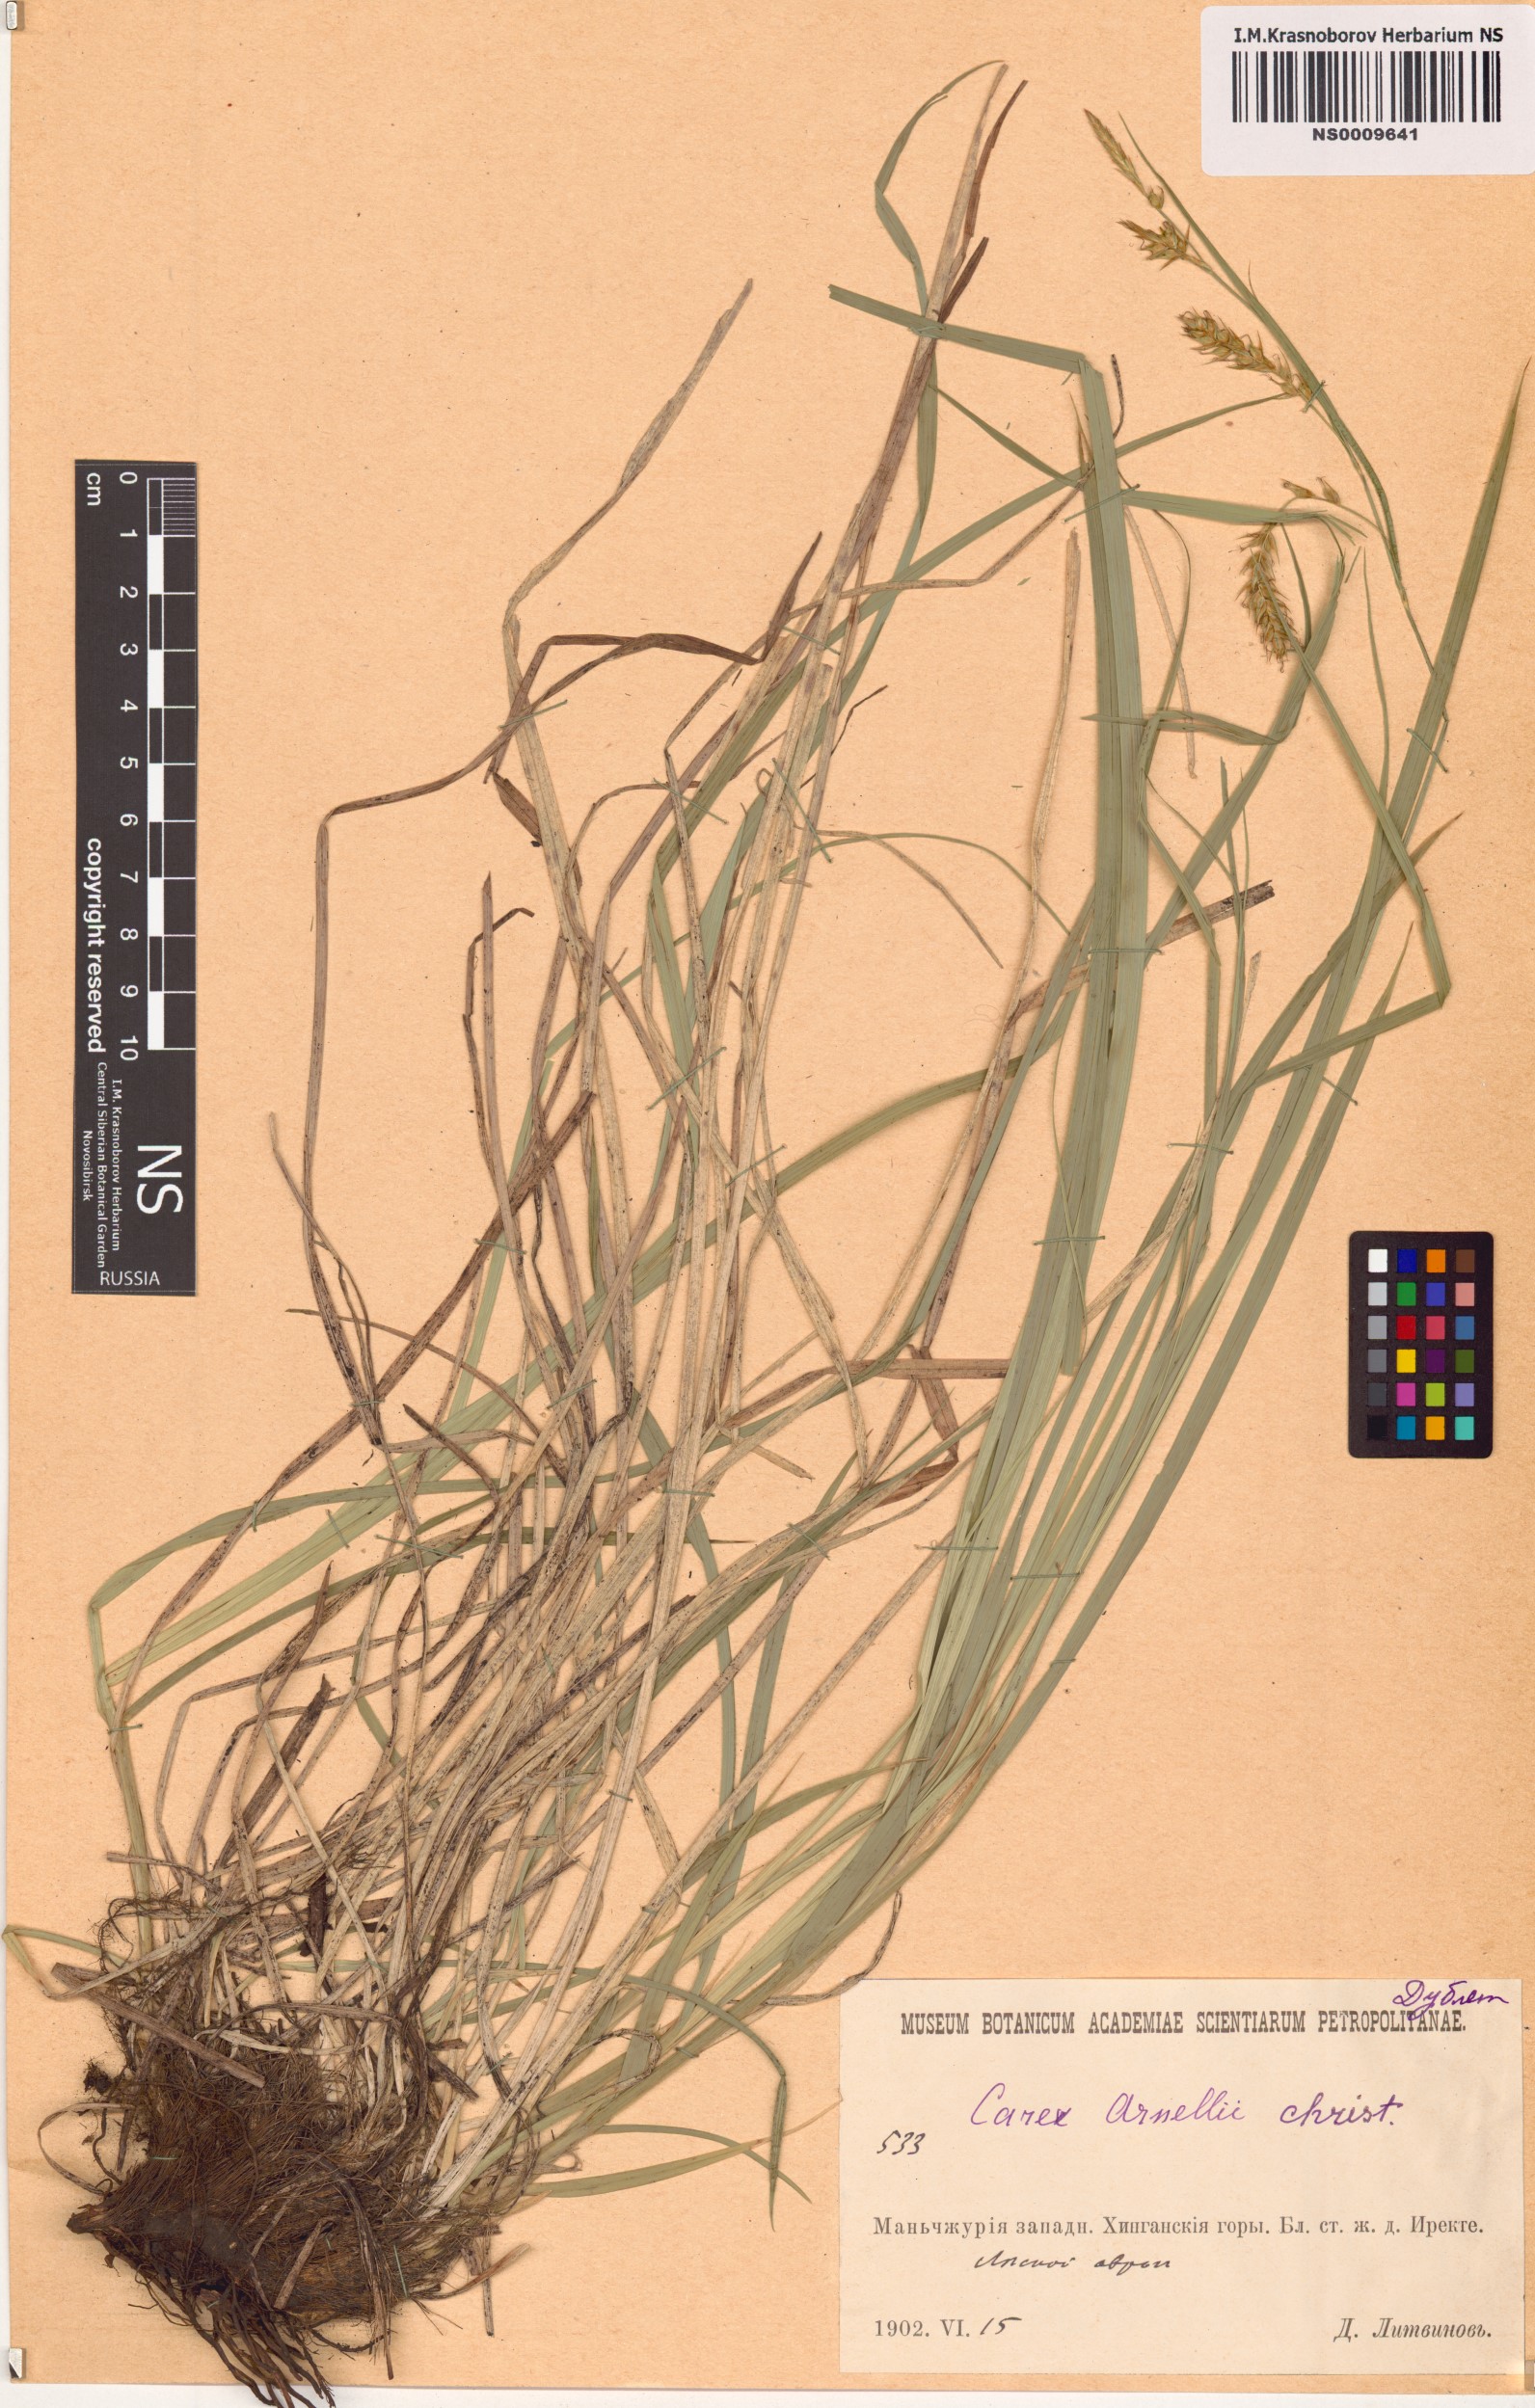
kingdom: Plantae
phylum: Tracheophyta
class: Liliopsida
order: Poales
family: Cyperaceae
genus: Carex
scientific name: Carex arnellii
